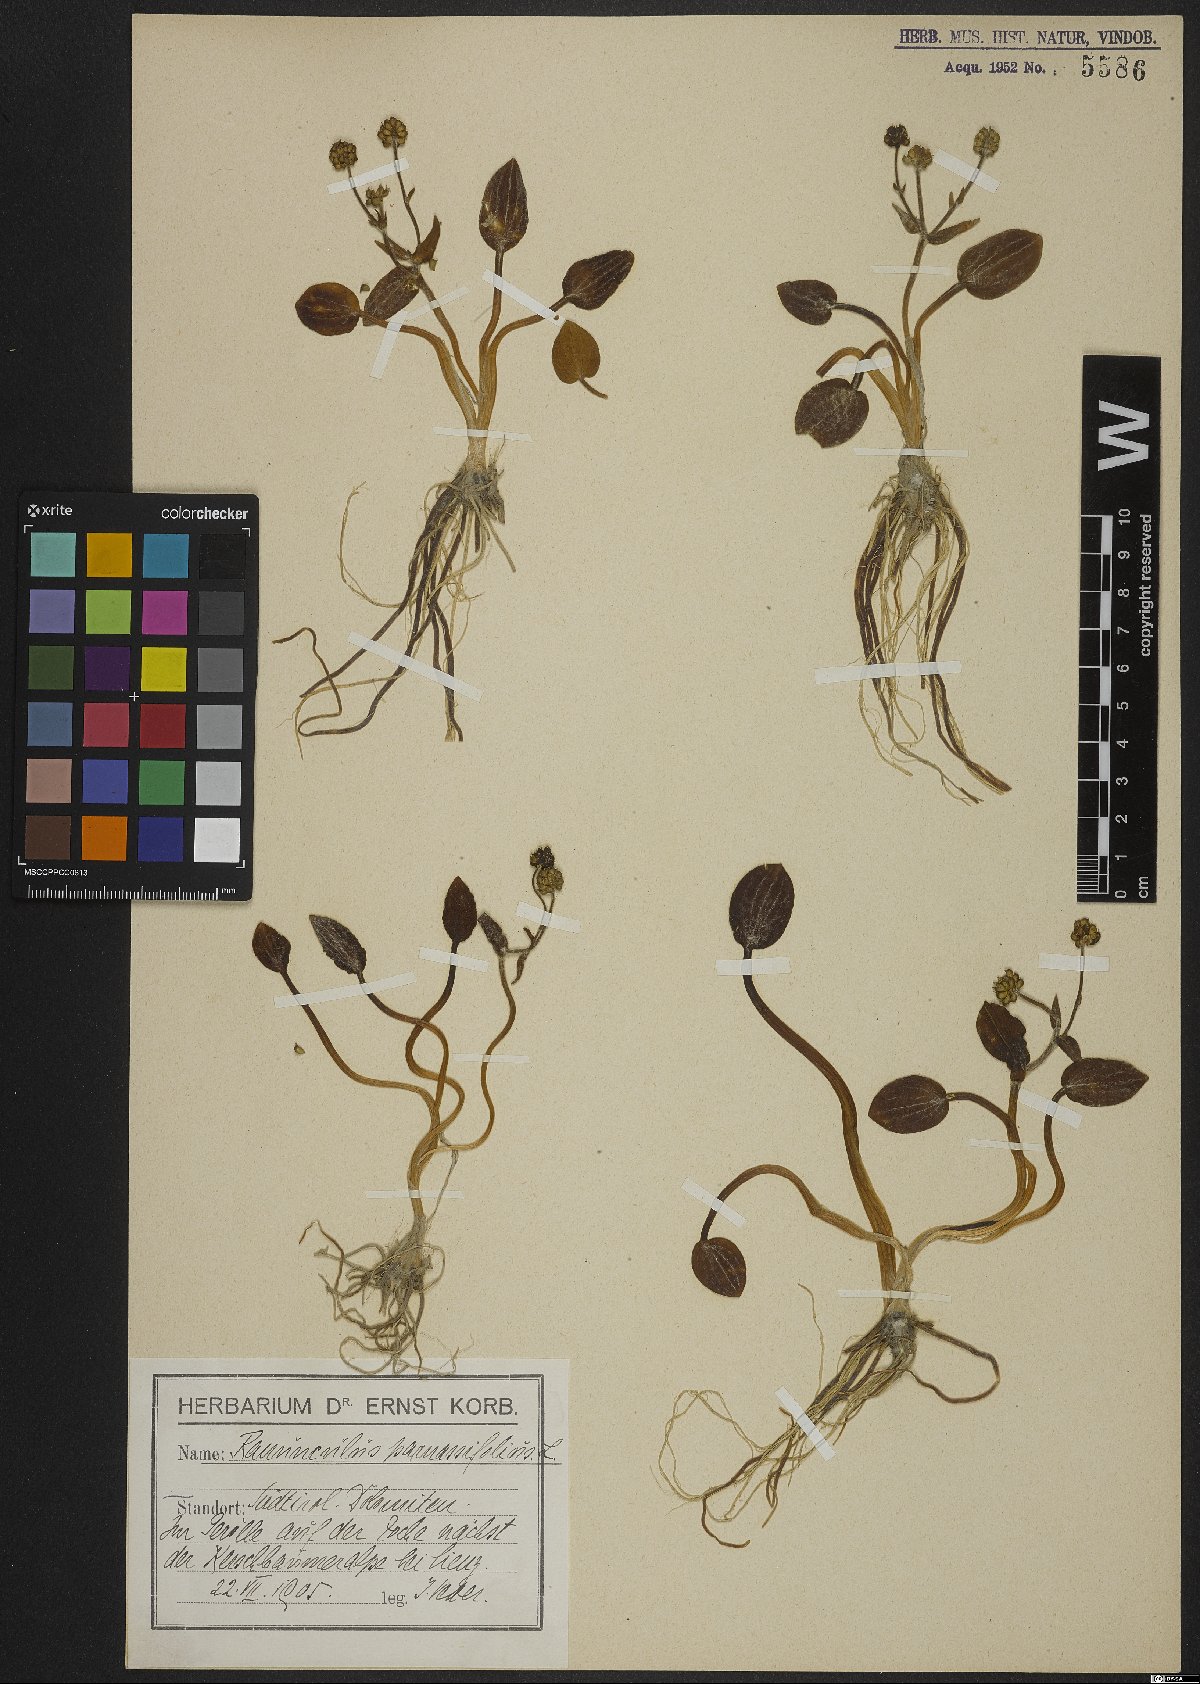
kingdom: Plantae
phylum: Tracheophyta
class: Magnoliopsida
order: Ranunculales
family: Ranunculaceae
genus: Ranunculus
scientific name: Ranunculus parnassiifolius
